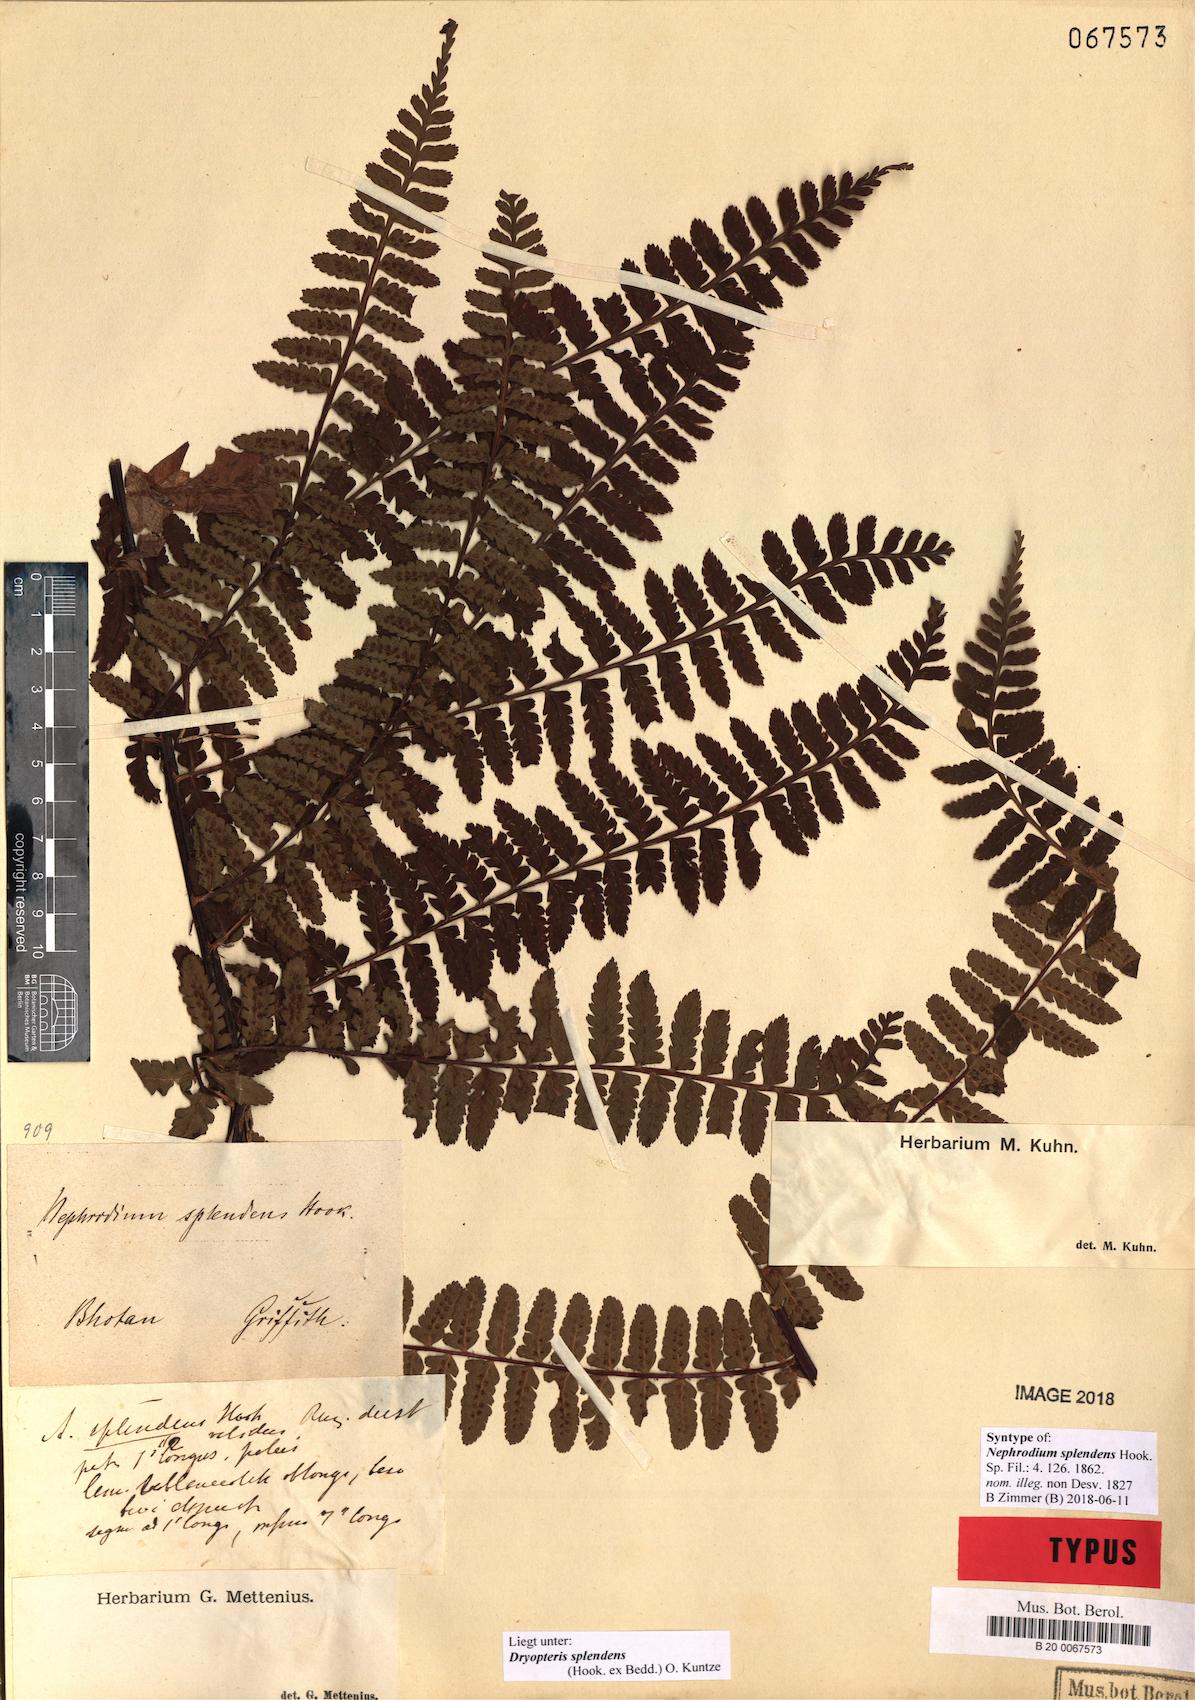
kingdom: Plantae
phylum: Tracheophyta
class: Polypodiopsida
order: Polypodiales
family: Dryopteridaceae
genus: Dryopteris
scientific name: Dryopteris splendens
